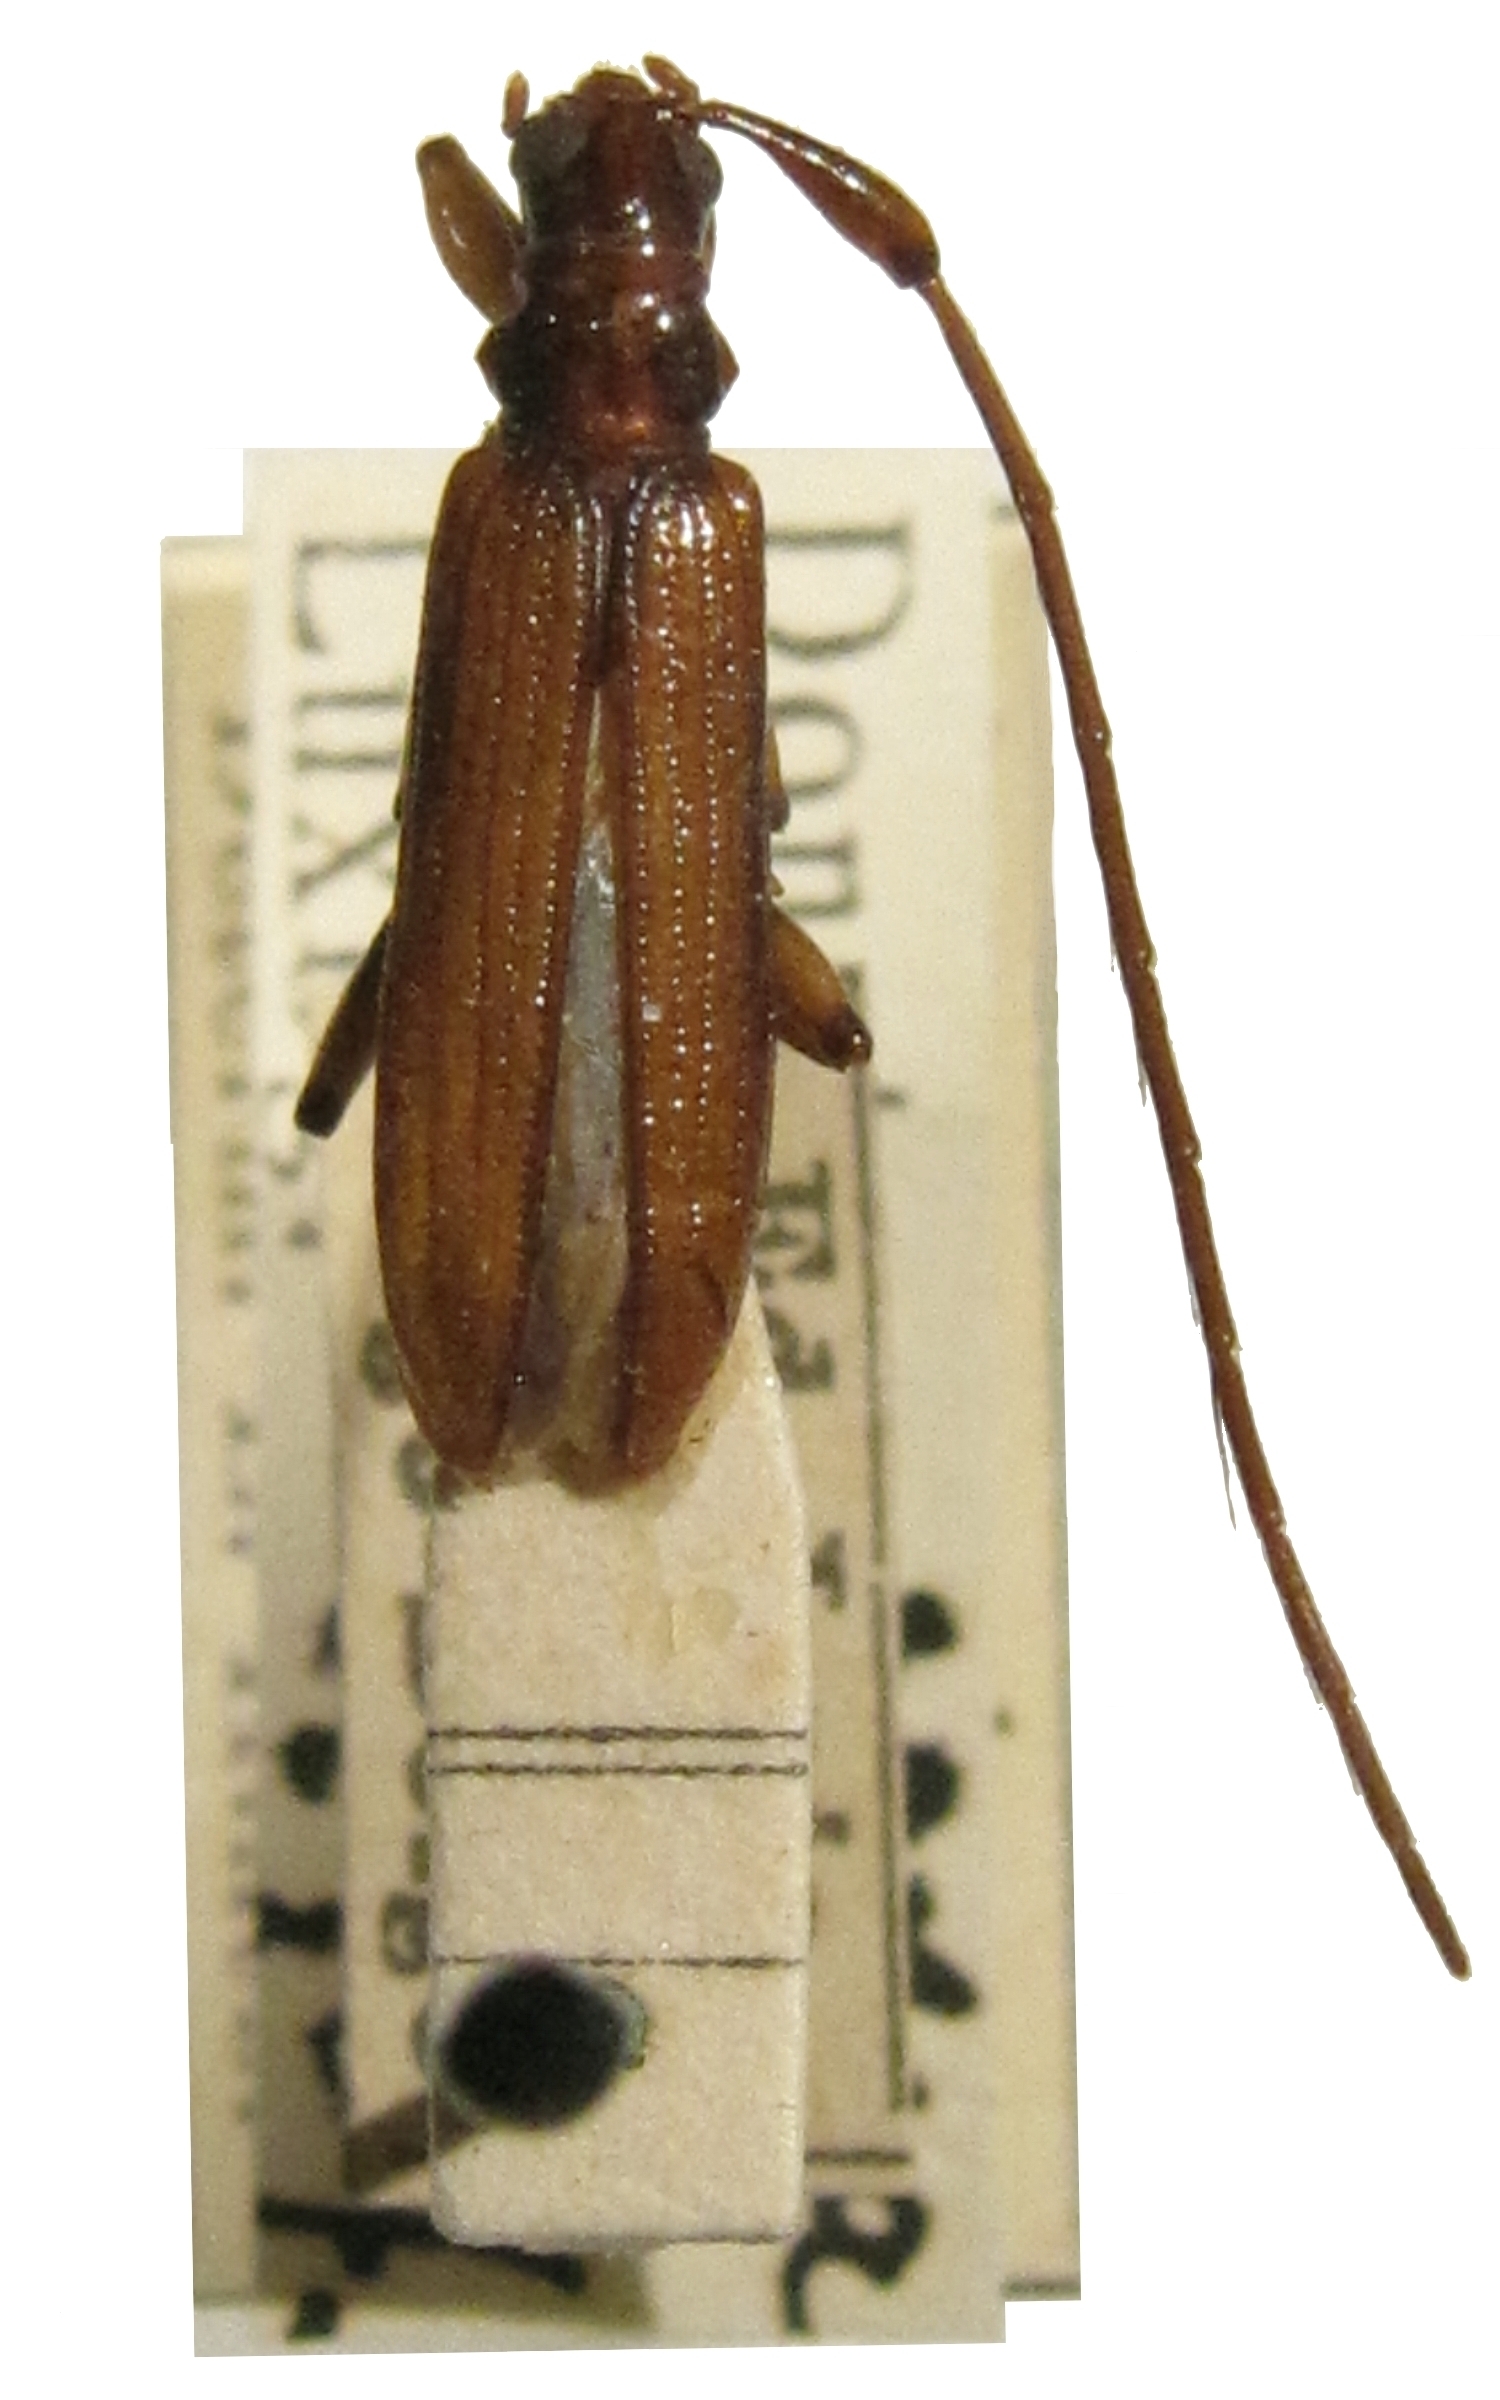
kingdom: Animalia
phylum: Arthropoda
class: Insecta
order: Coleoptera
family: Cerambycidae
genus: Saphanodes
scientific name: Saphanodes
